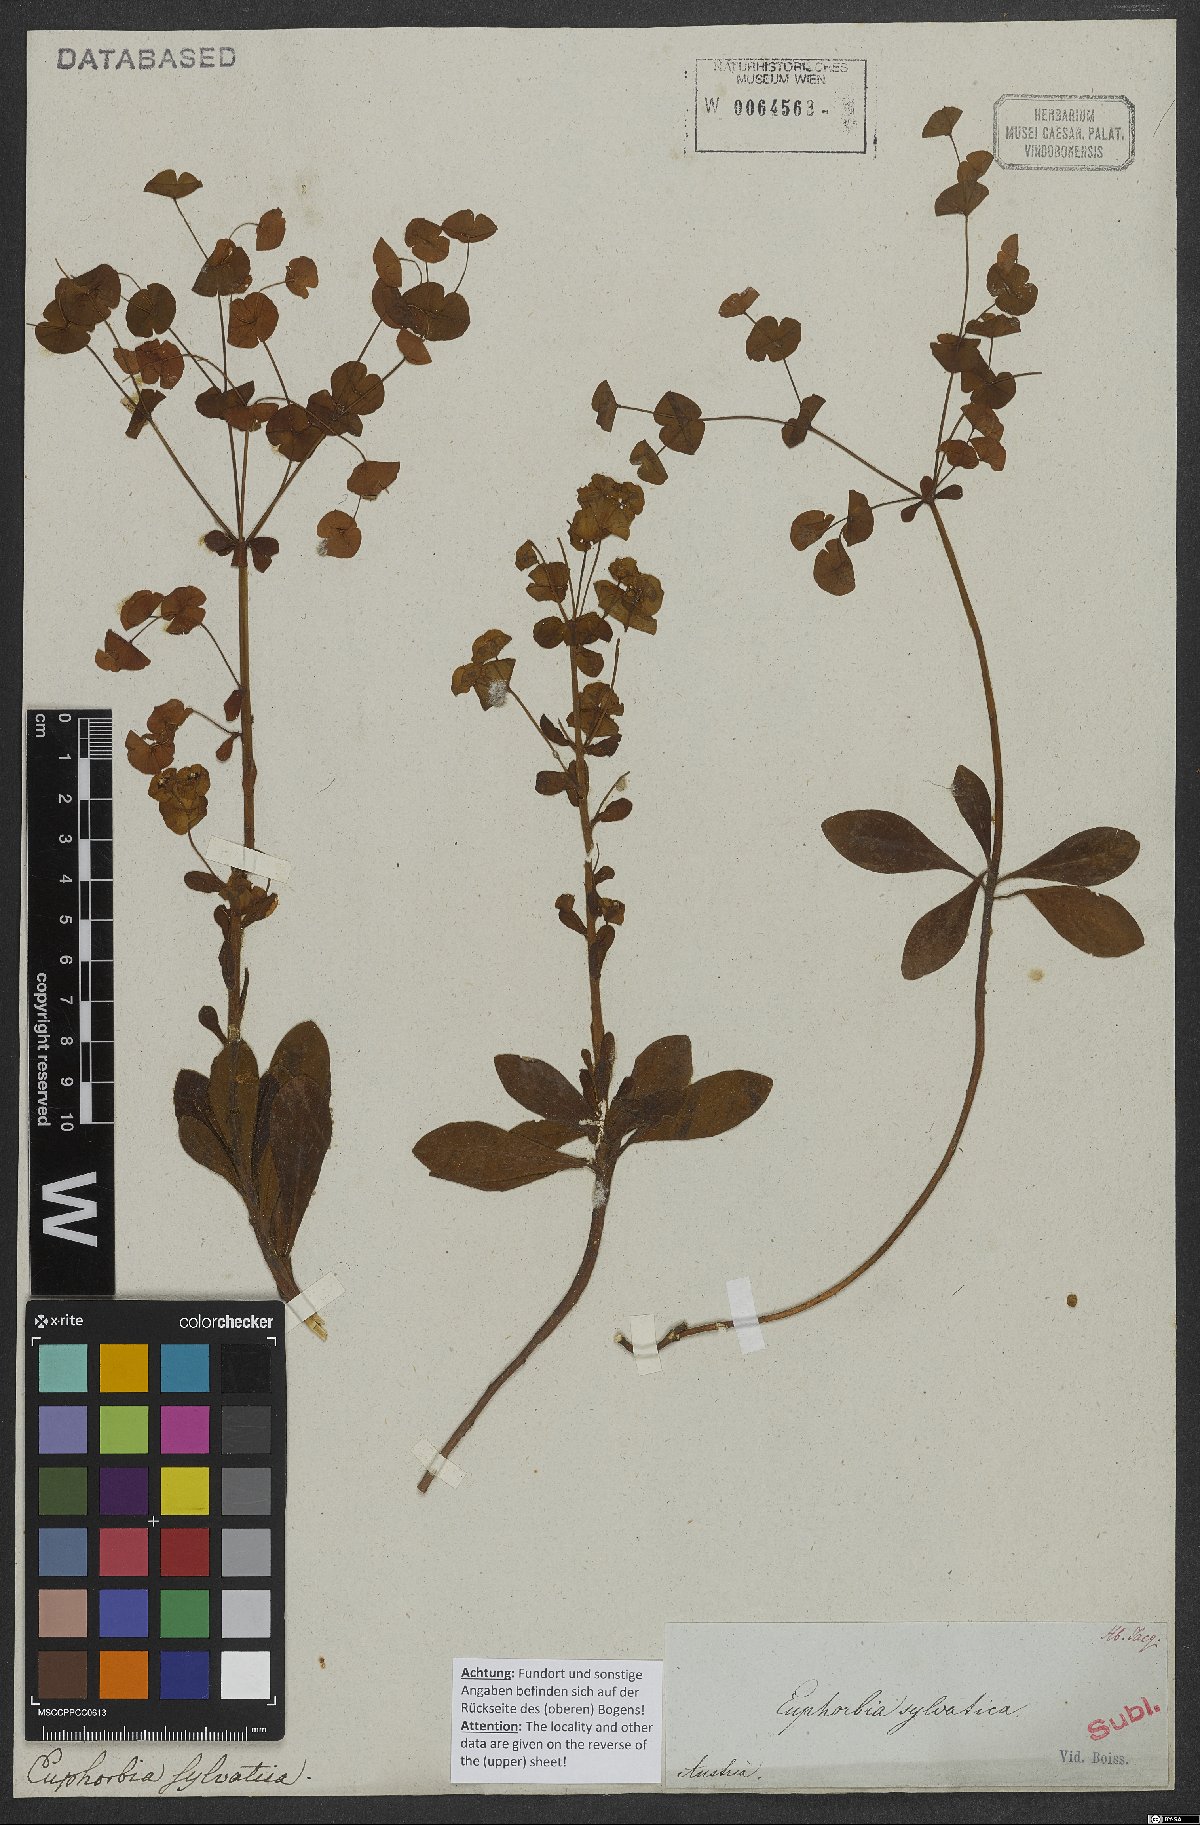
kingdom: Plantae
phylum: Tracheophyta
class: Magnoliopsida
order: Malpighiales
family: Euphorbiaceae
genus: Euphorbia
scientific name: Euphorbia amygdaloides
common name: Wood spurge
